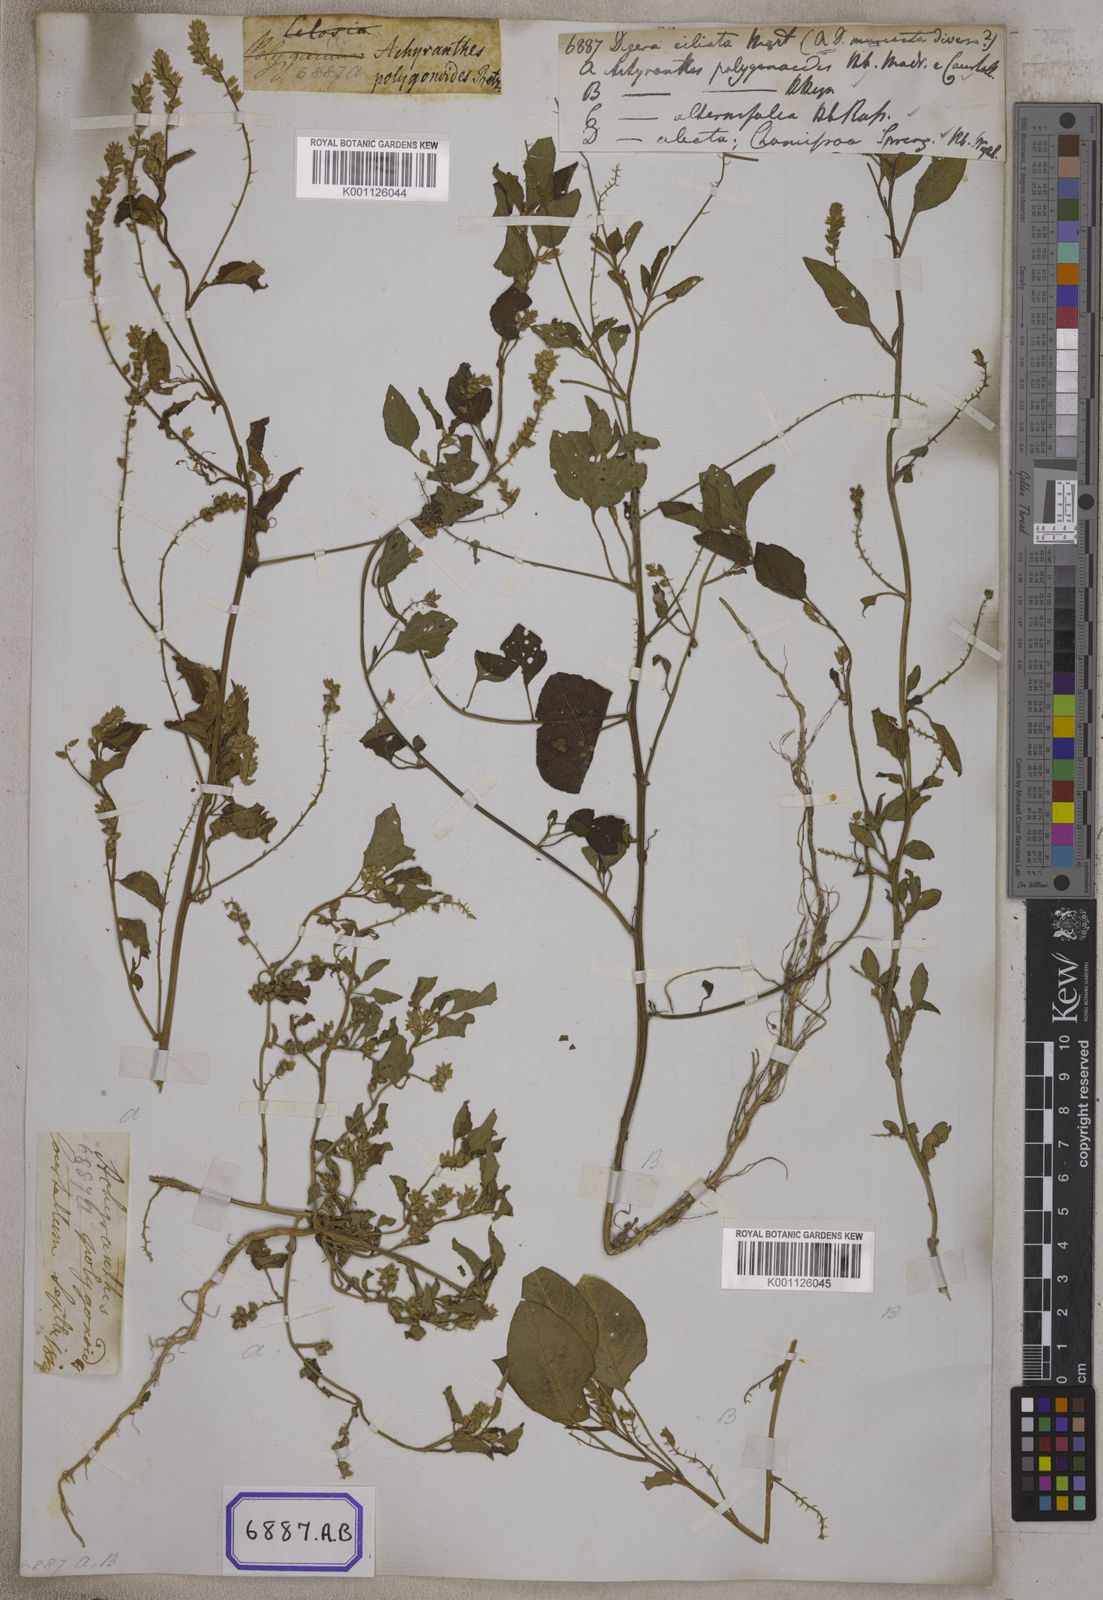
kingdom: Plantae
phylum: Tracheophyta
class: Magnoliopsida
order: Caryophyllales
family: Amaranthaceae
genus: Digera
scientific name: Digera muricata
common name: False amaranth
